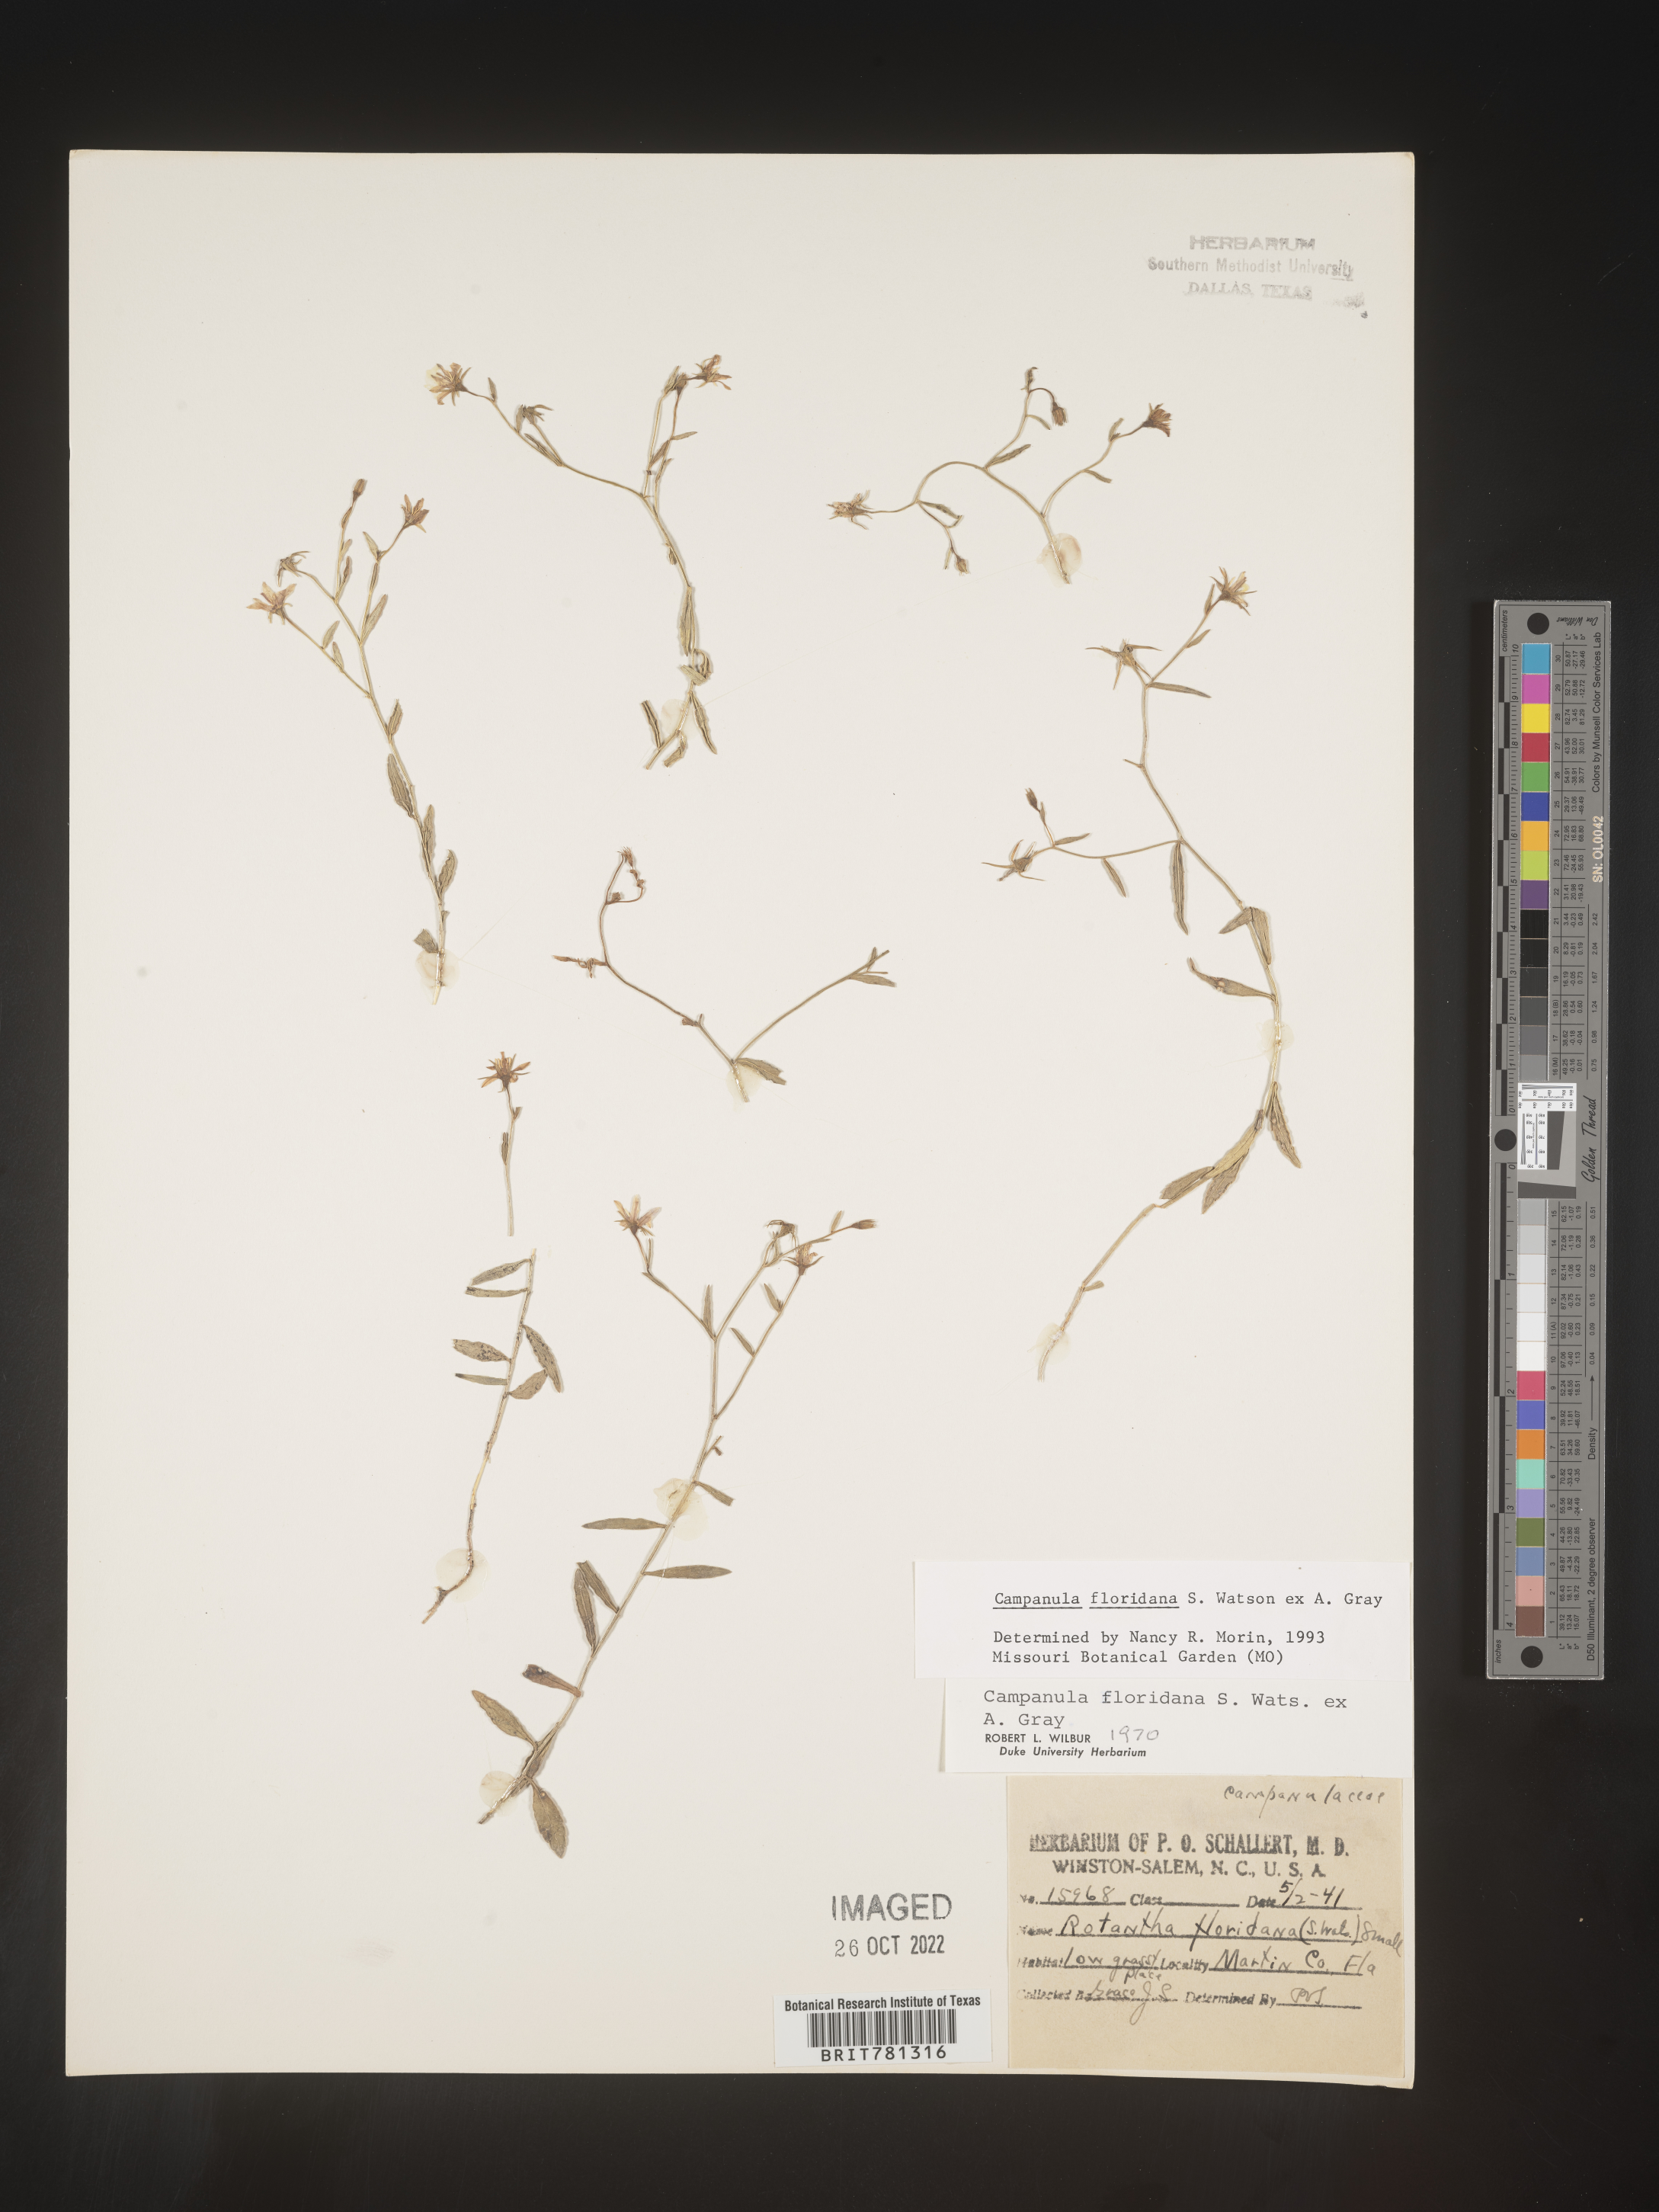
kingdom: Plantae
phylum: Tracheophyta
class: Magnoliopsida
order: Asterales
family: Campanulaceae
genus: Campanula
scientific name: Campanula
